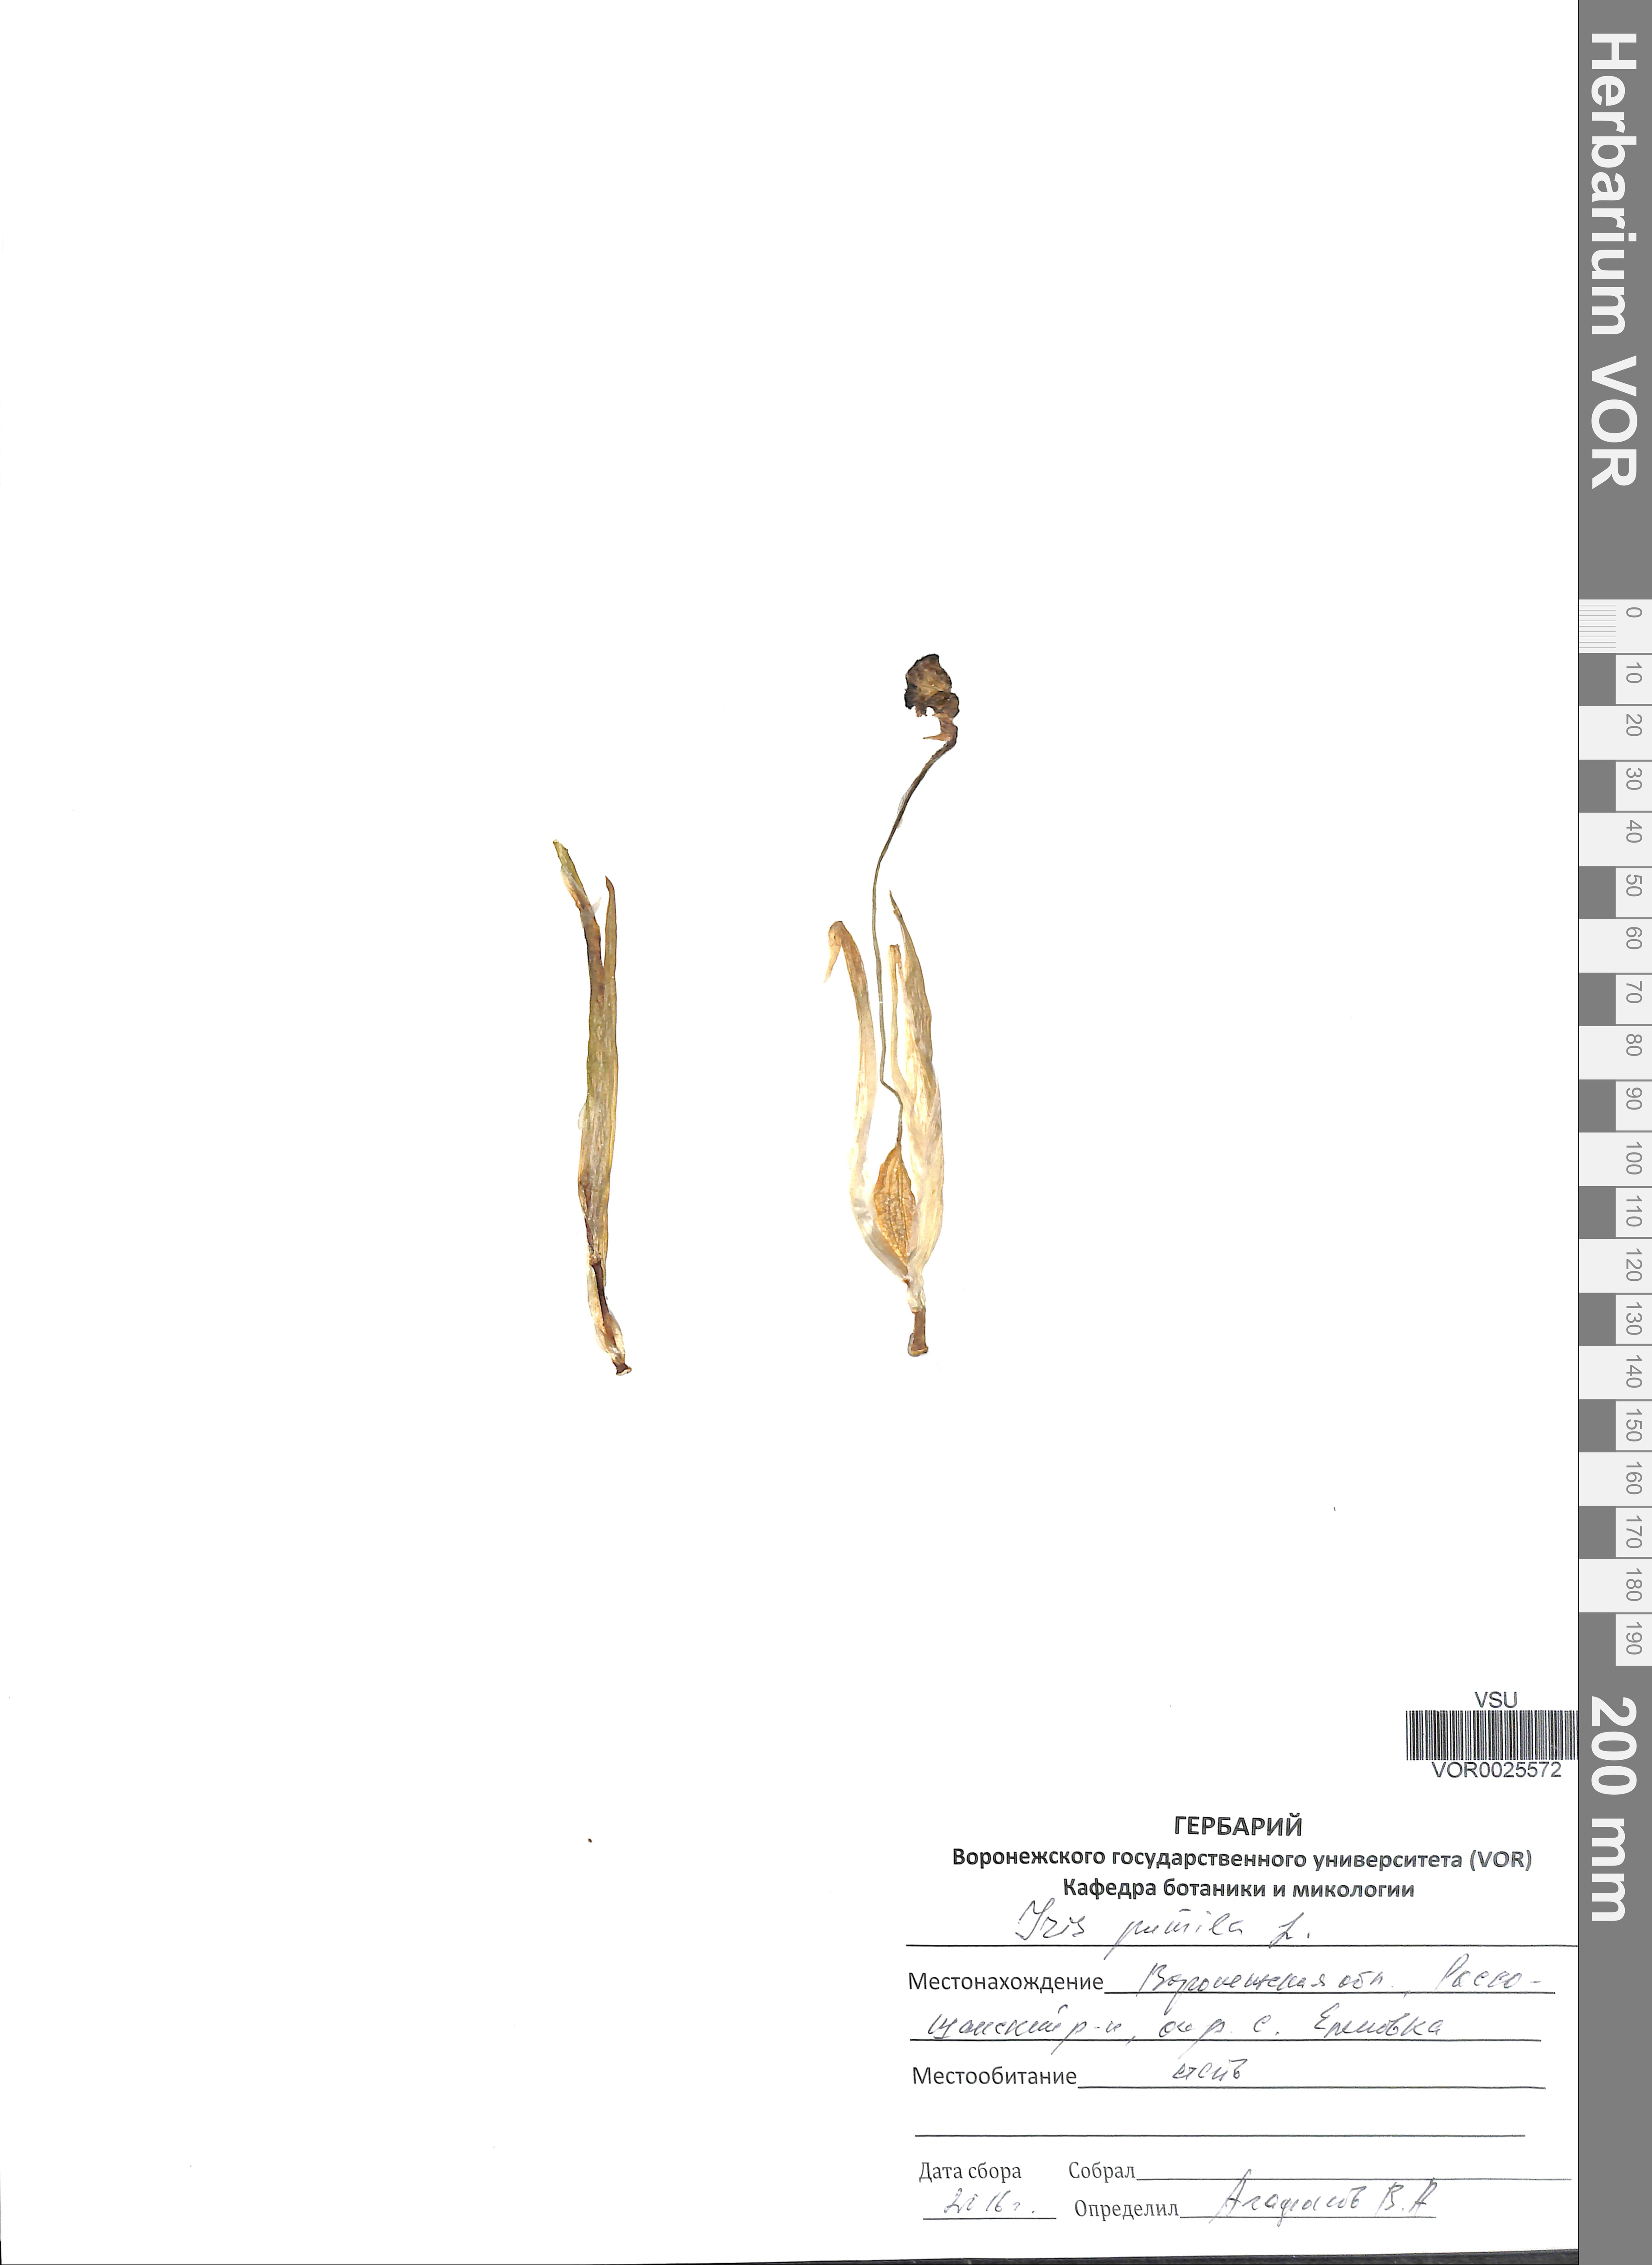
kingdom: Plantae
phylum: Tracheophyta
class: Liliopsida
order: Asparagales
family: Iridaceae
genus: Iris
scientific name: Iris pumila
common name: Dwarf iris
